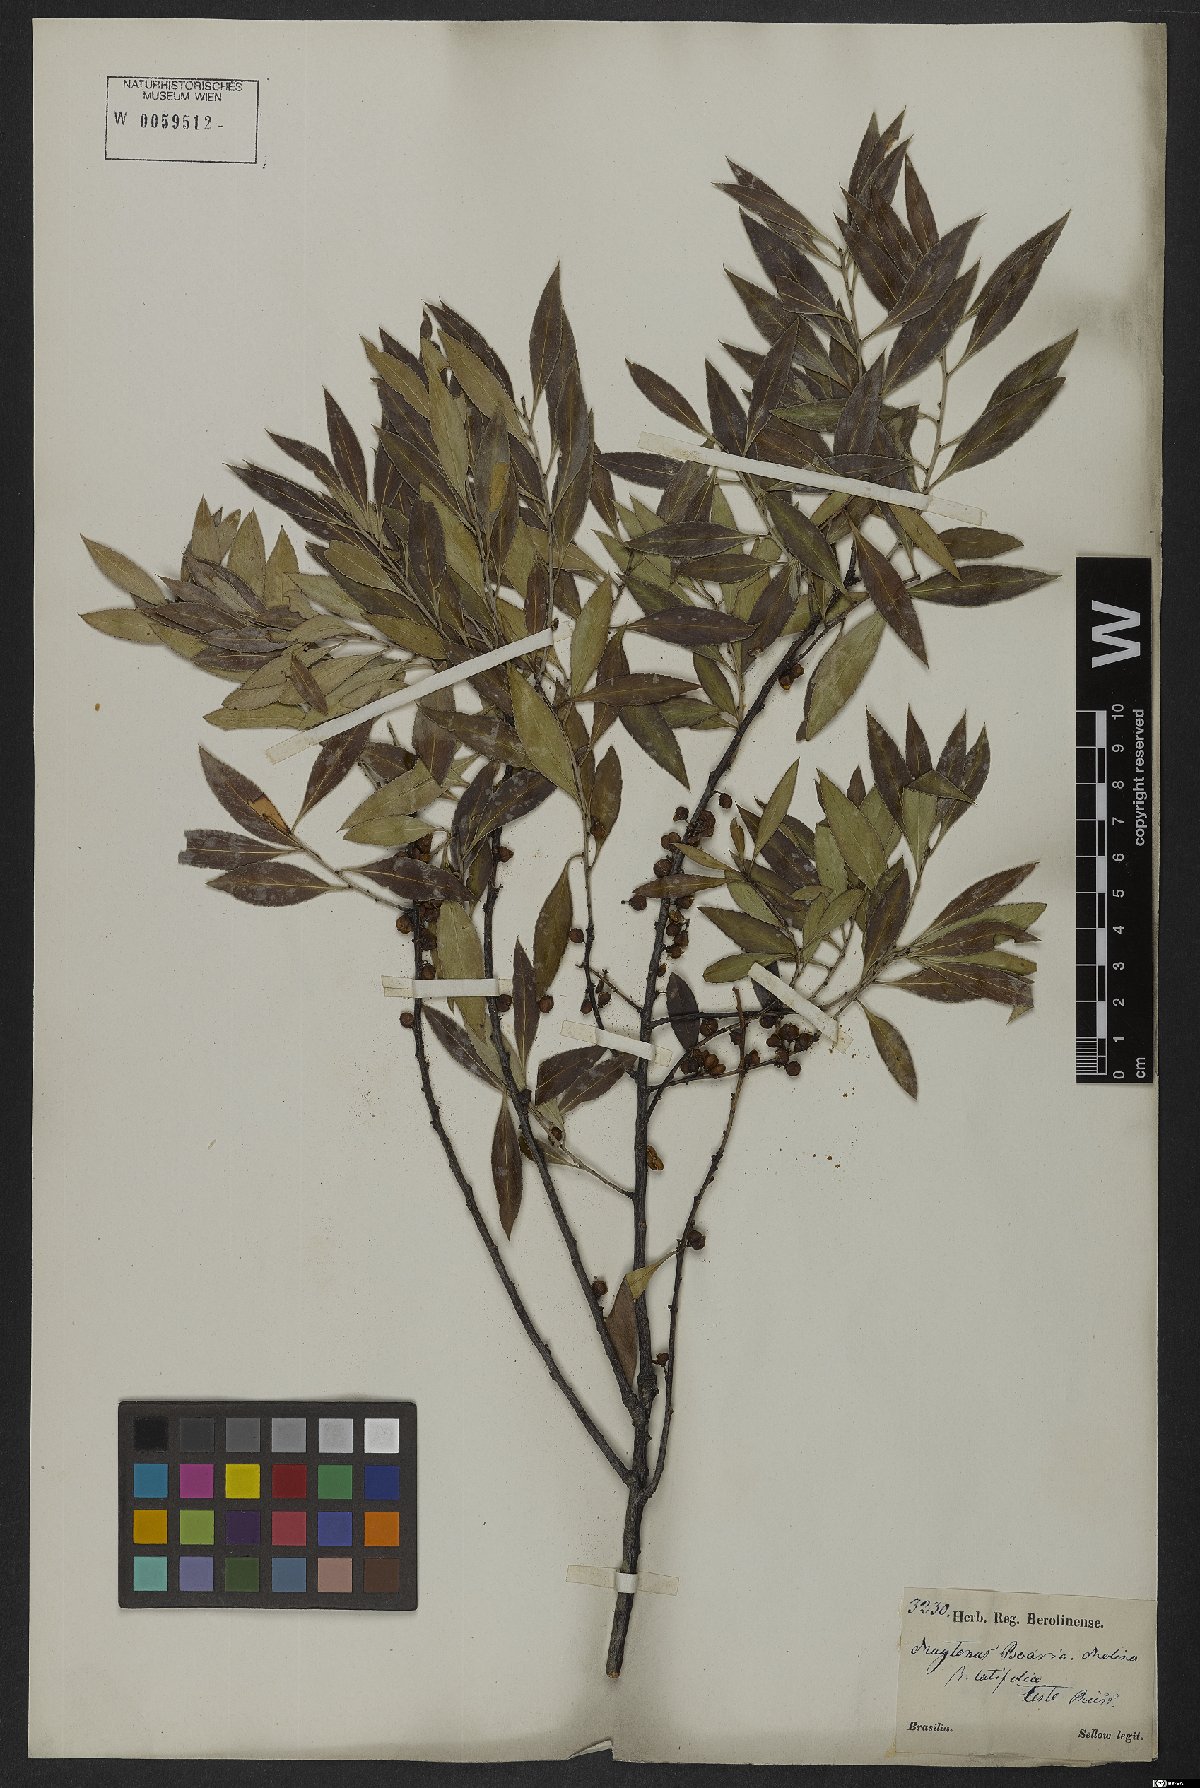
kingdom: Plantae
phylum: Tracheophyta
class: Magnoliopsida
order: Celastrales
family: Celastraceae
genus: Maytenus
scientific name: Maytenus boaria
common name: Mayten
